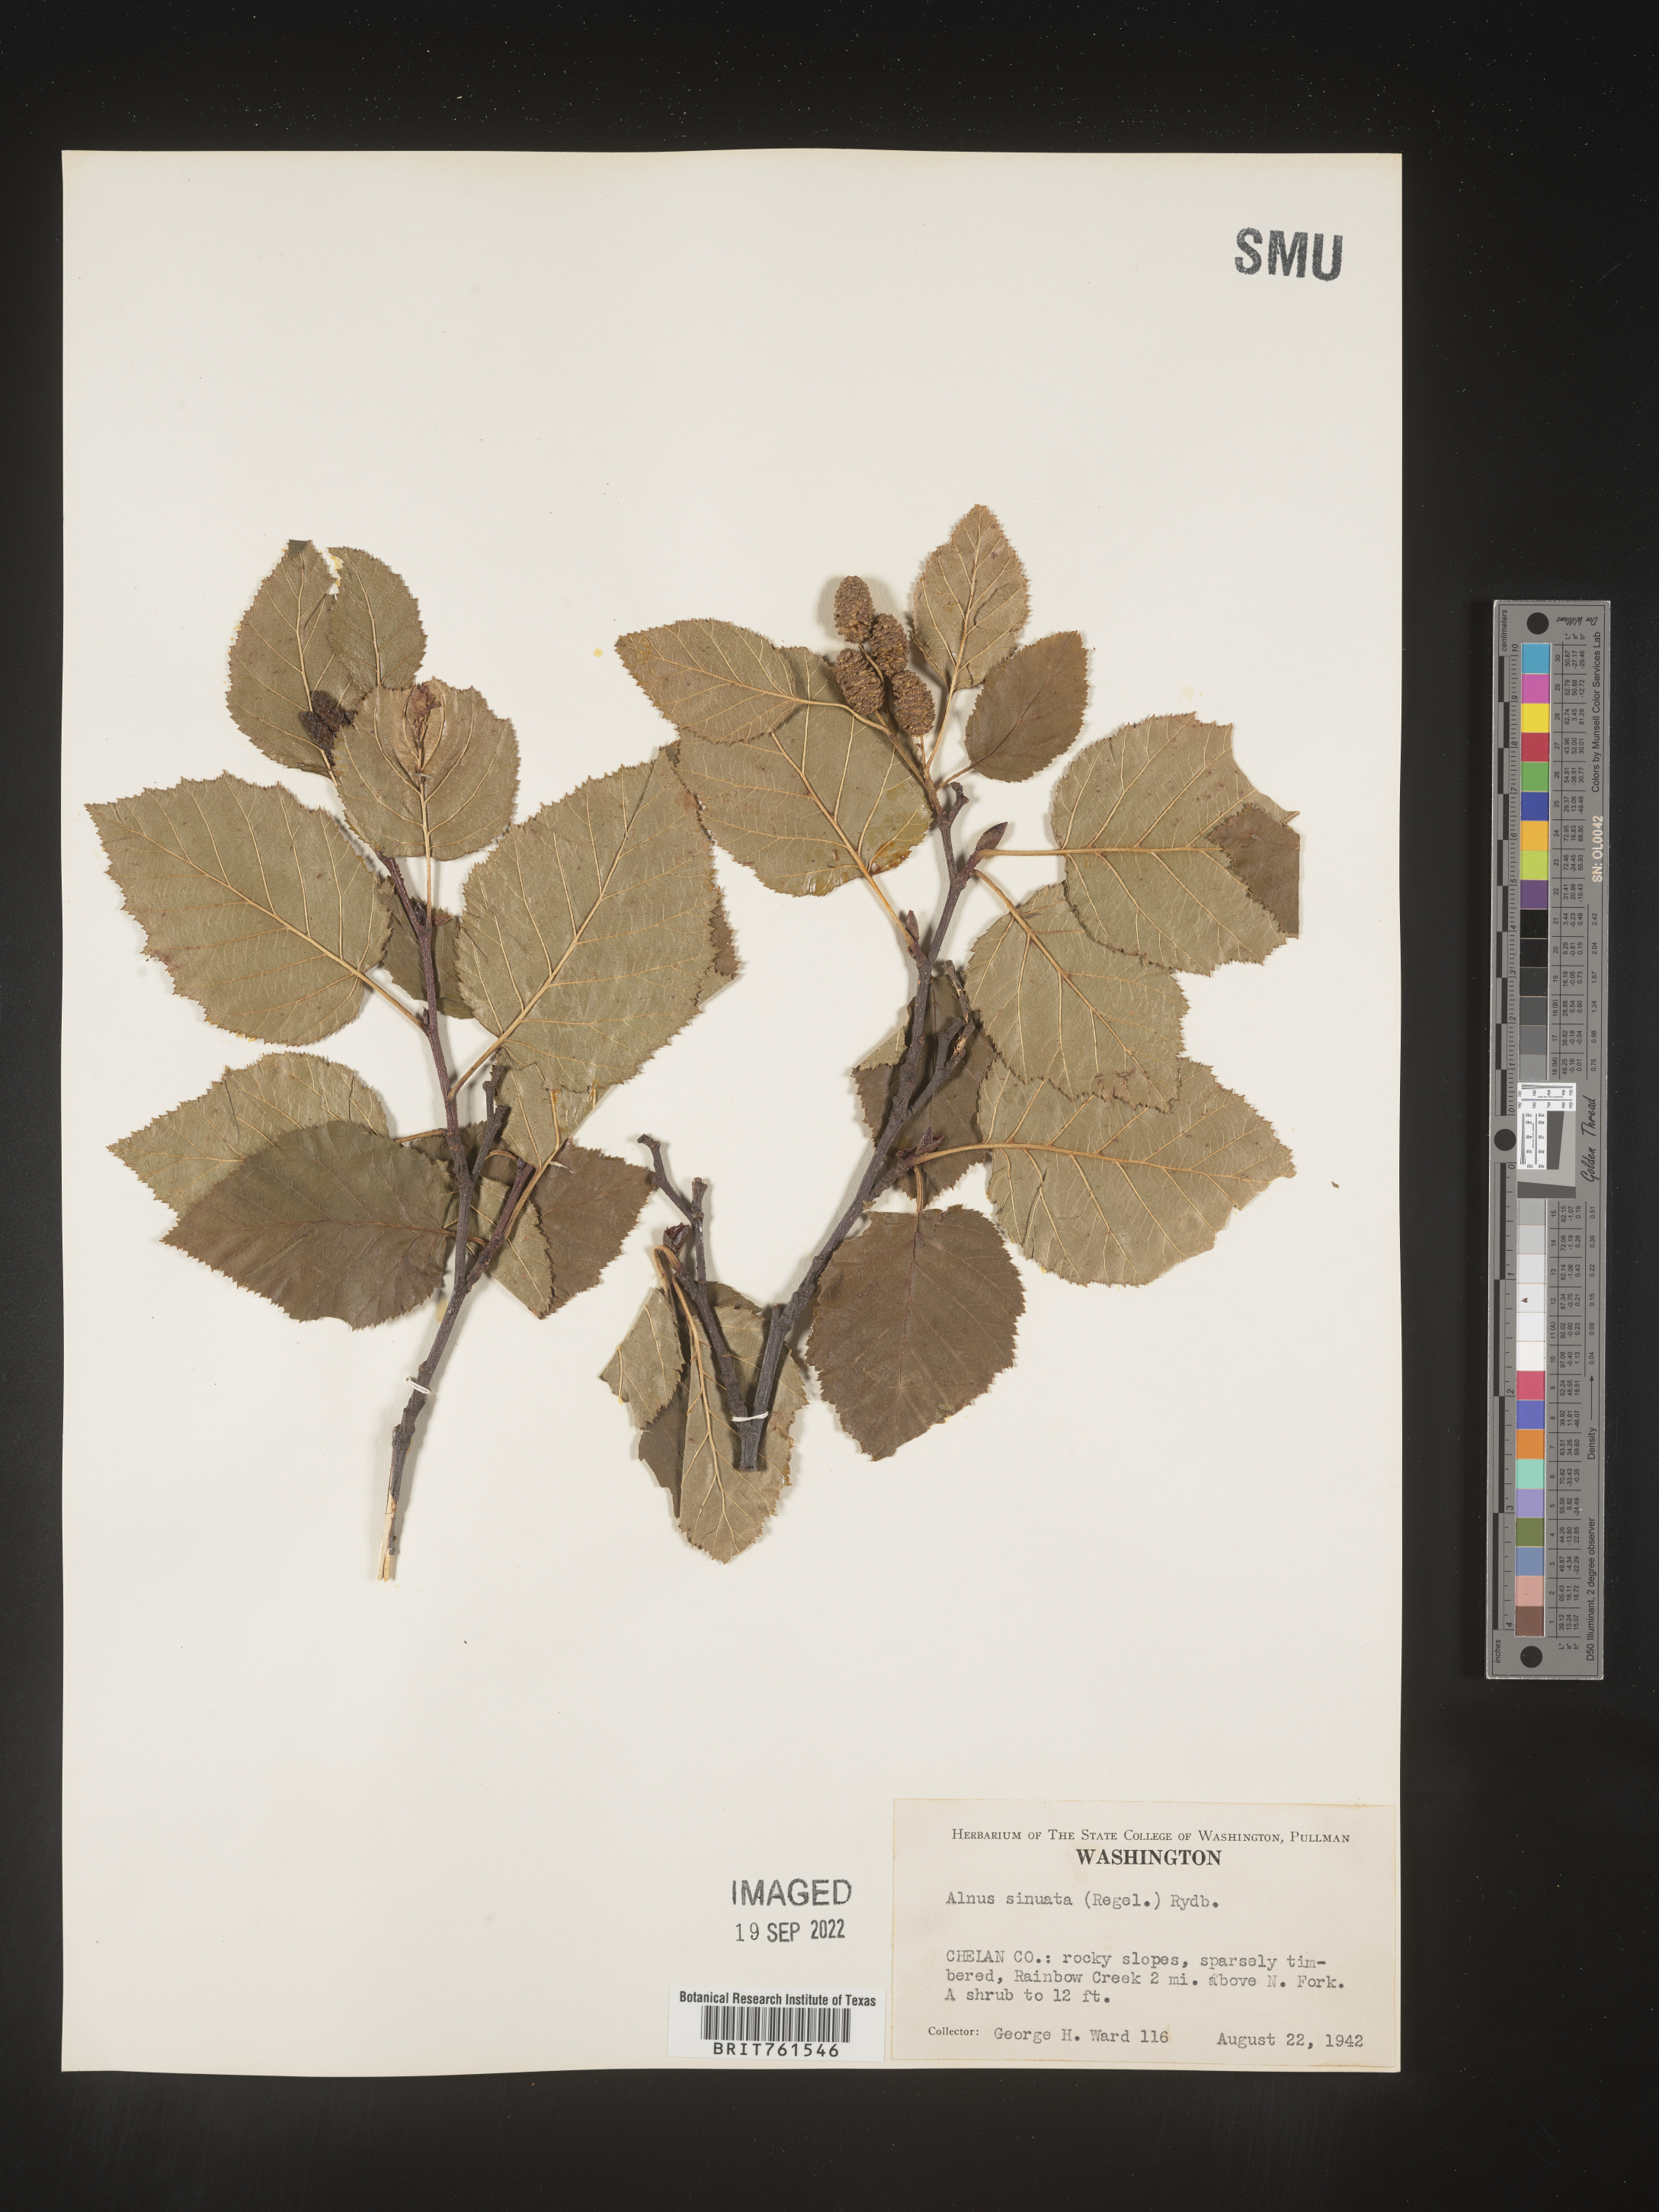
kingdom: Plantae
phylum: Tracheophyta
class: Magnoliopsida
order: Fagales
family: Betulaceae
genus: Alnus
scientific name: Alnus alnobetula
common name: Green alder
